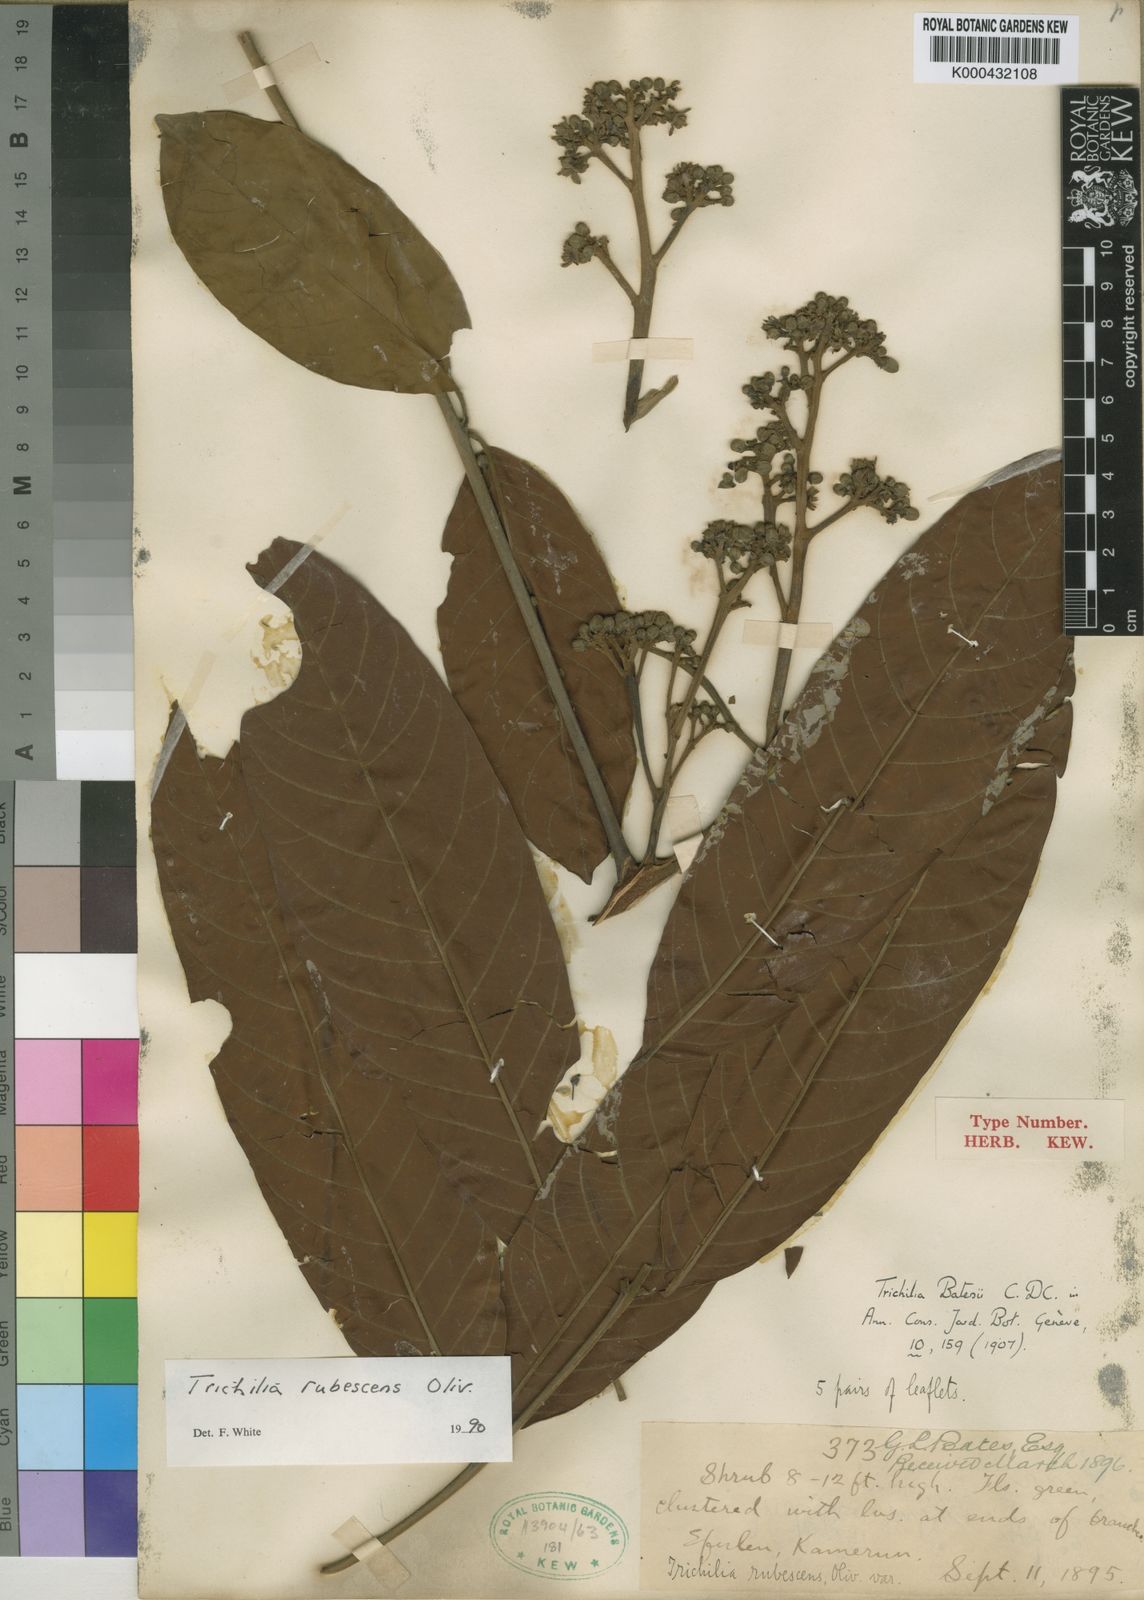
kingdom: Plantae
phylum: Tracheophyta
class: Magnoliopsida
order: Sapindales
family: Meliaceae
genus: Trichilia
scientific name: Trichilia rubescens
